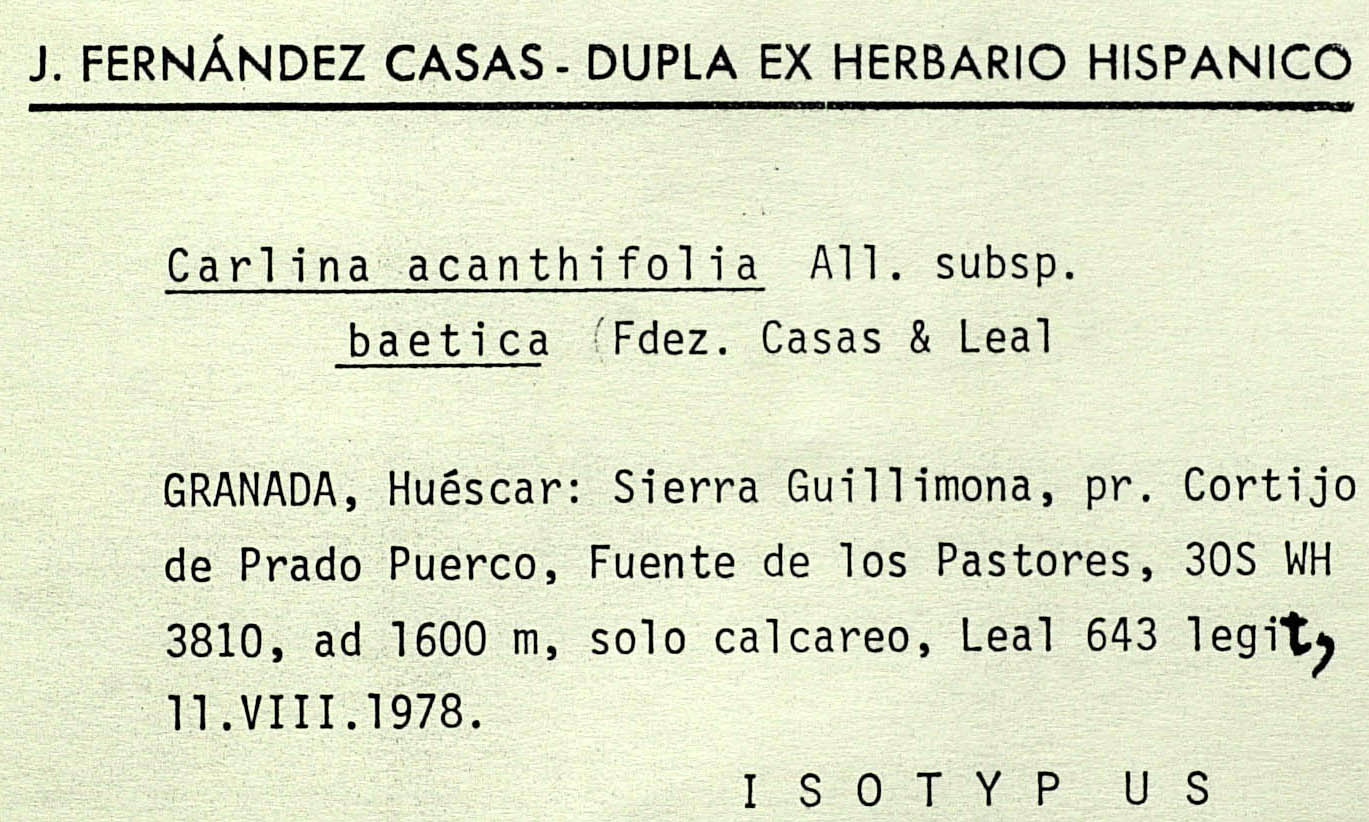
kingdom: Plantae
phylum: Tracheophyta
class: Magnoliopsida
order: Asterales
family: Asteraceae
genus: Carlina
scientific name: Carlina acanthifolia
